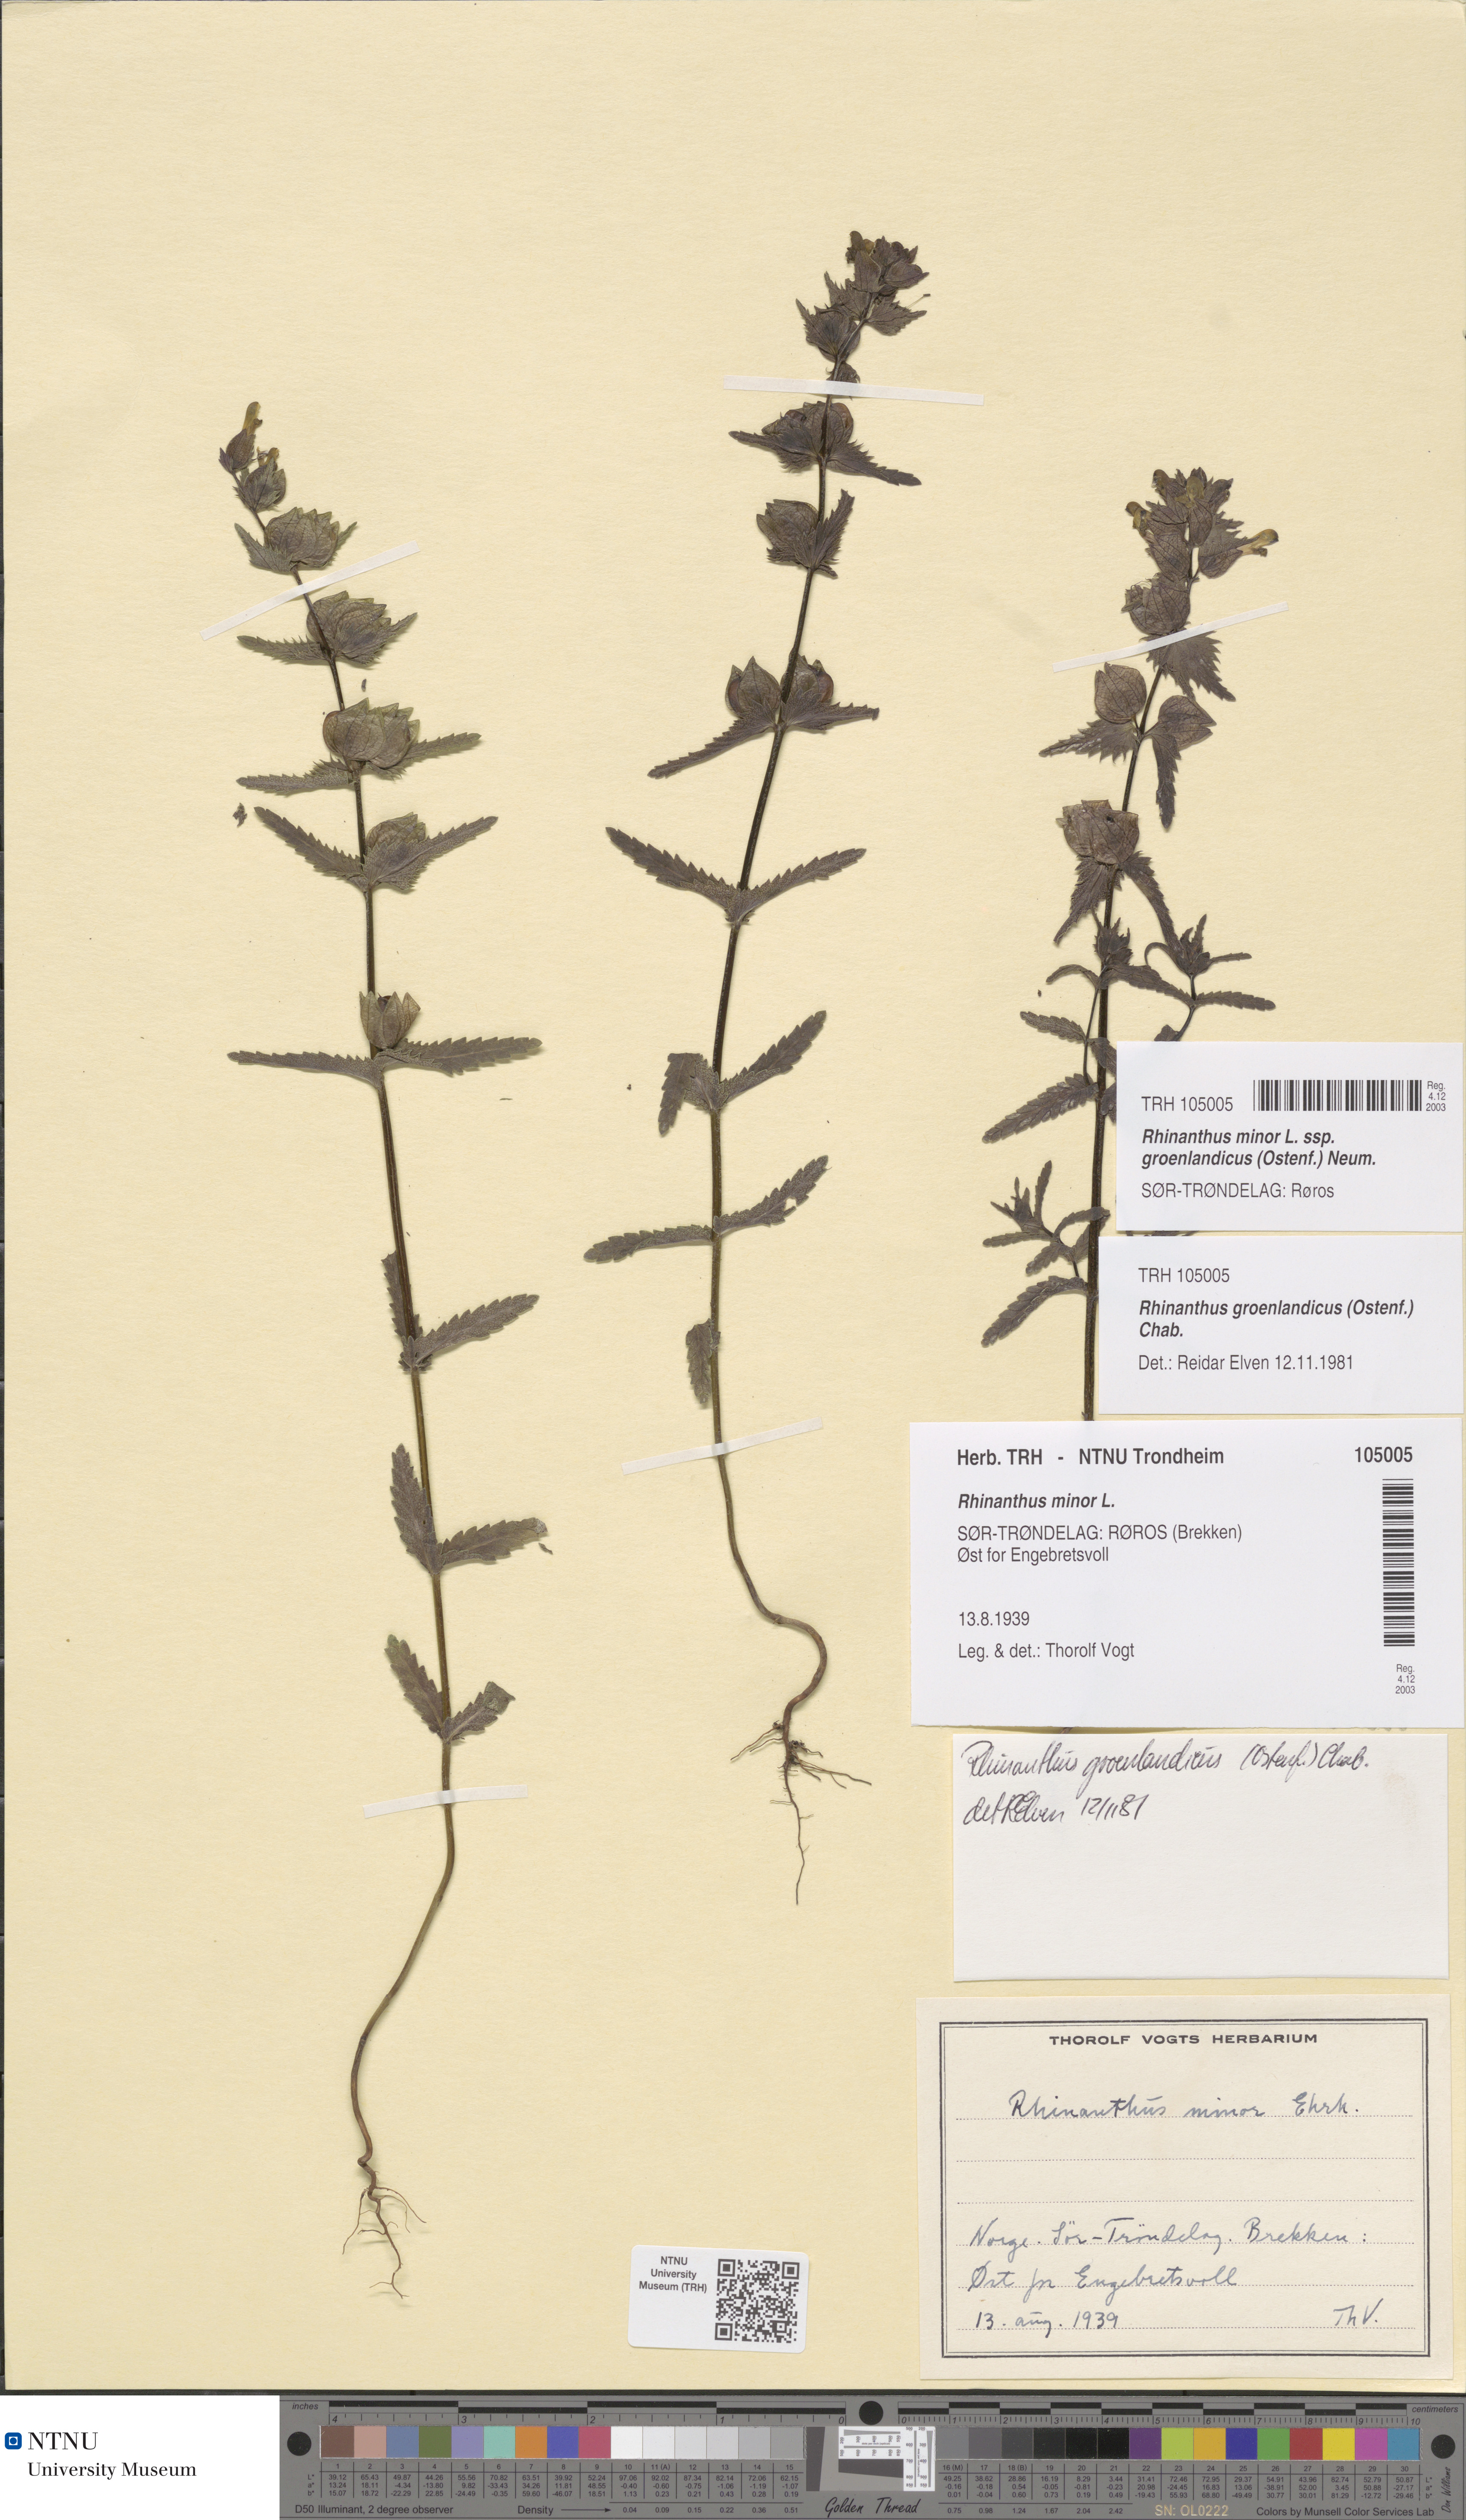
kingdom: Plantae
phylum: Tracheophyta
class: Magnoliopsida
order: Lamiales
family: Orobanchaceae
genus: Rhinanthus
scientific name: Rhinanthus groenlandicus
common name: Little yellow rattle
